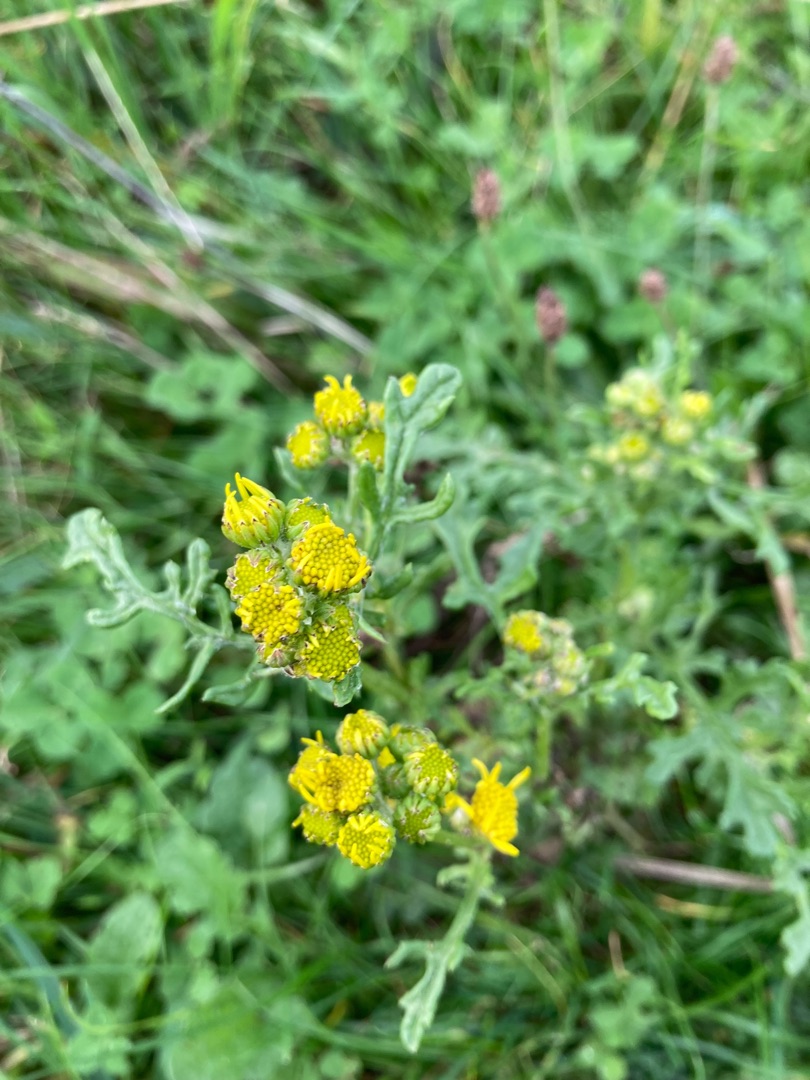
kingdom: Plantae
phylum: Tracheophyta
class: Magnoliopsida
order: Asterales
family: Asteraceae
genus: Jacobaea
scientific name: Jacobaea vulgaris
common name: Eng-brandbæger
